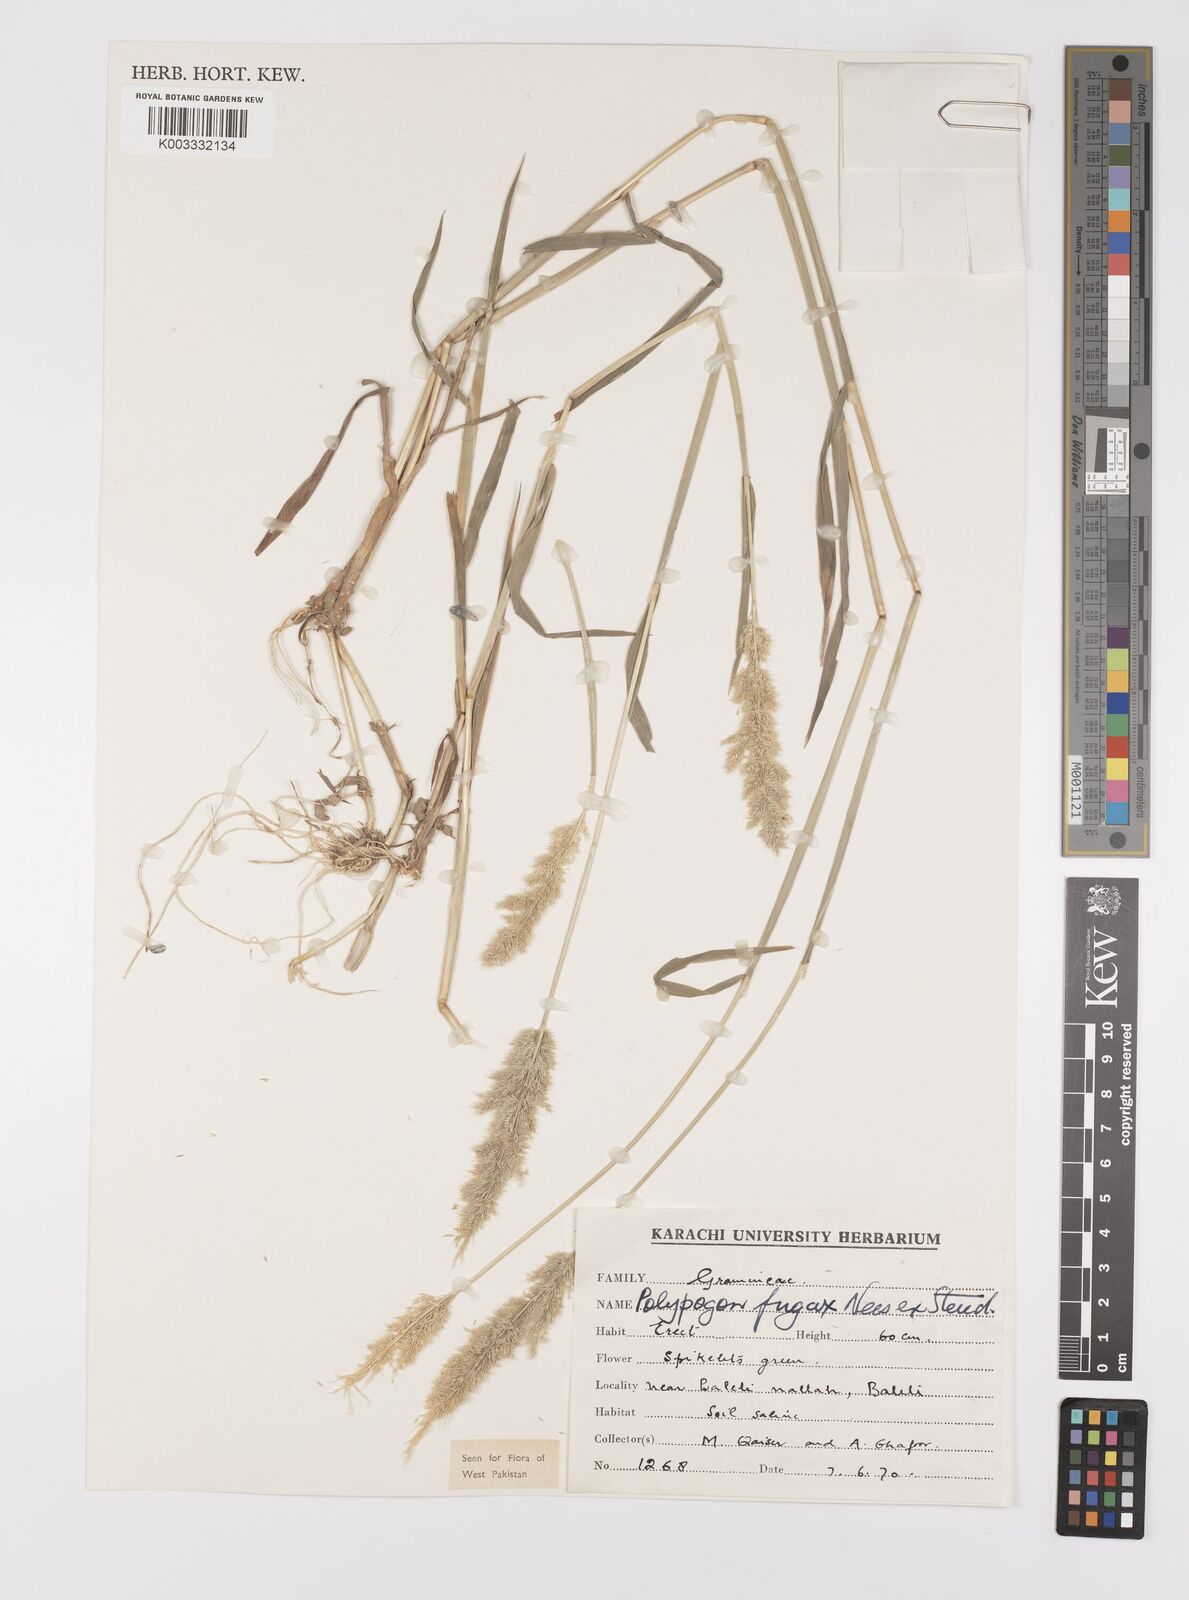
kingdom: Plantae
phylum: Tracheophyta
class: Liliopsida
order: Poales
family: Poaceae
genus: Polypogon
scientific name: Polypogon fugax
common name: Asia minor bluegrass
